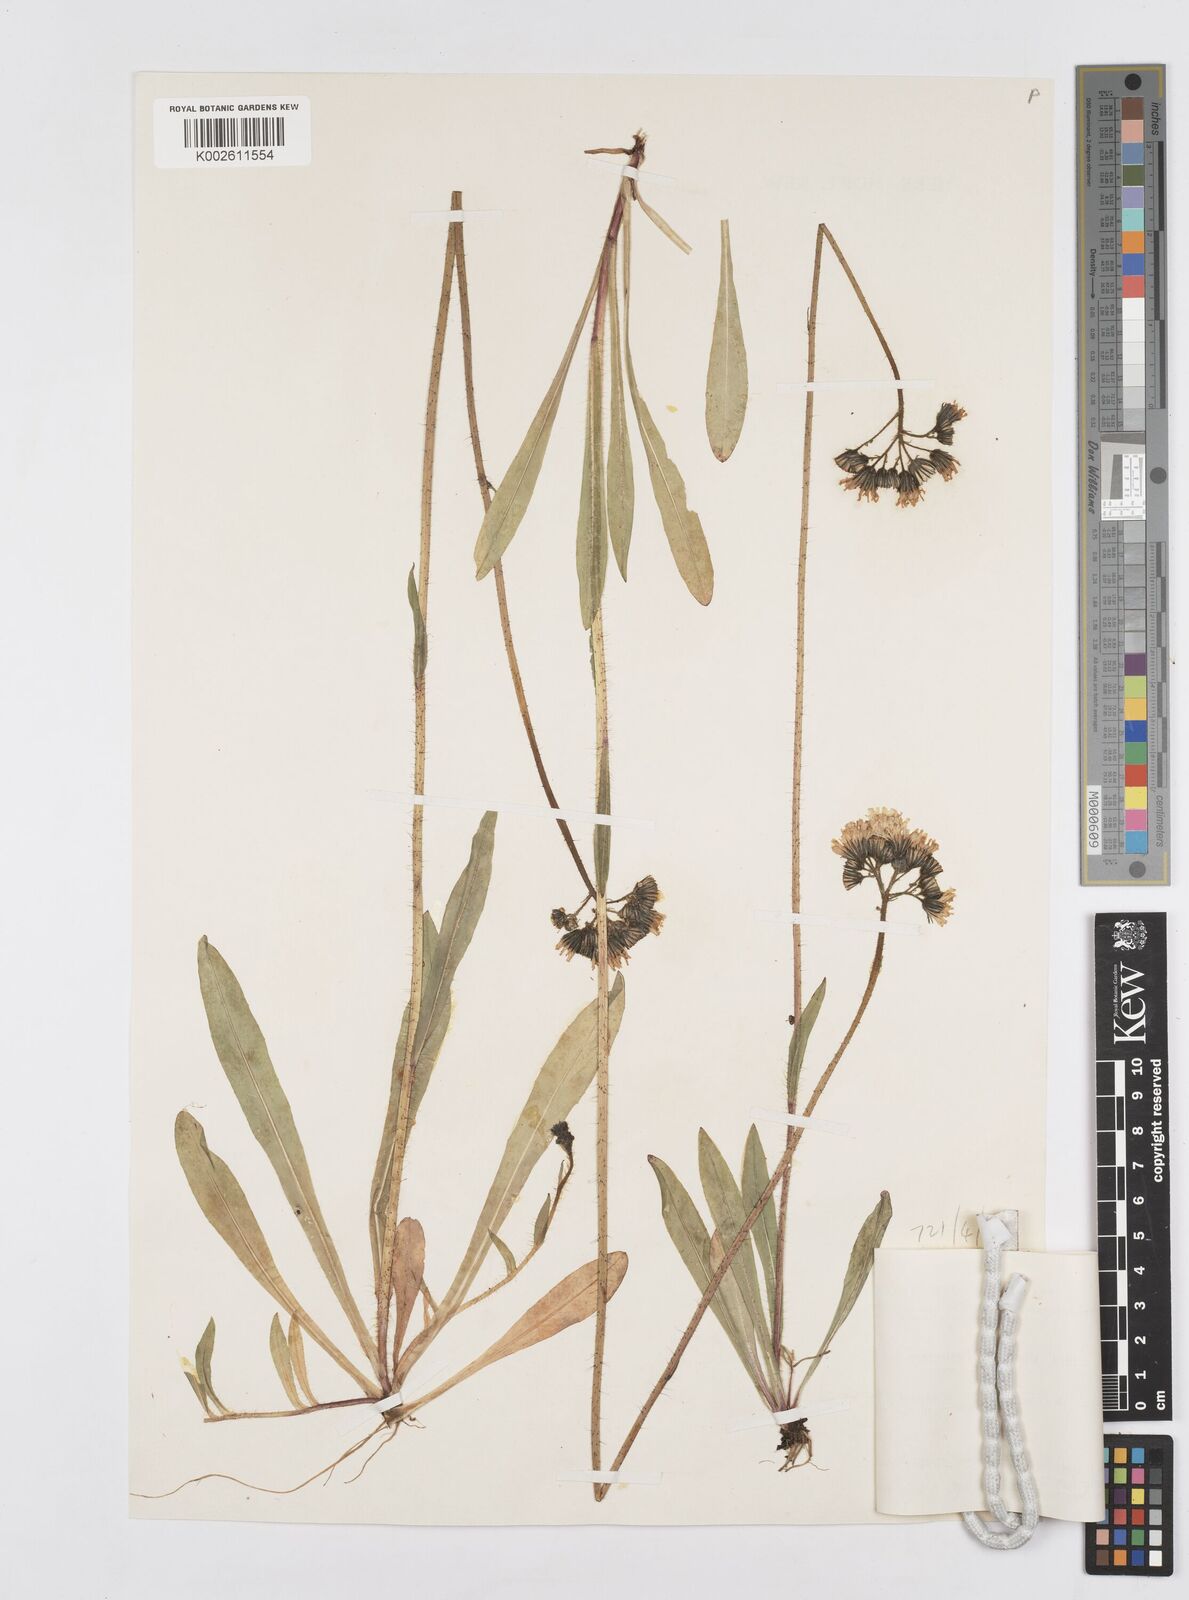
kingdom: Plantae
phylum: Tracheophyta
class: Magnoliopsida
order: Asterales
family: Asteraceae
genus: Pilosella
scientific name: Pilosella erythrochrista
